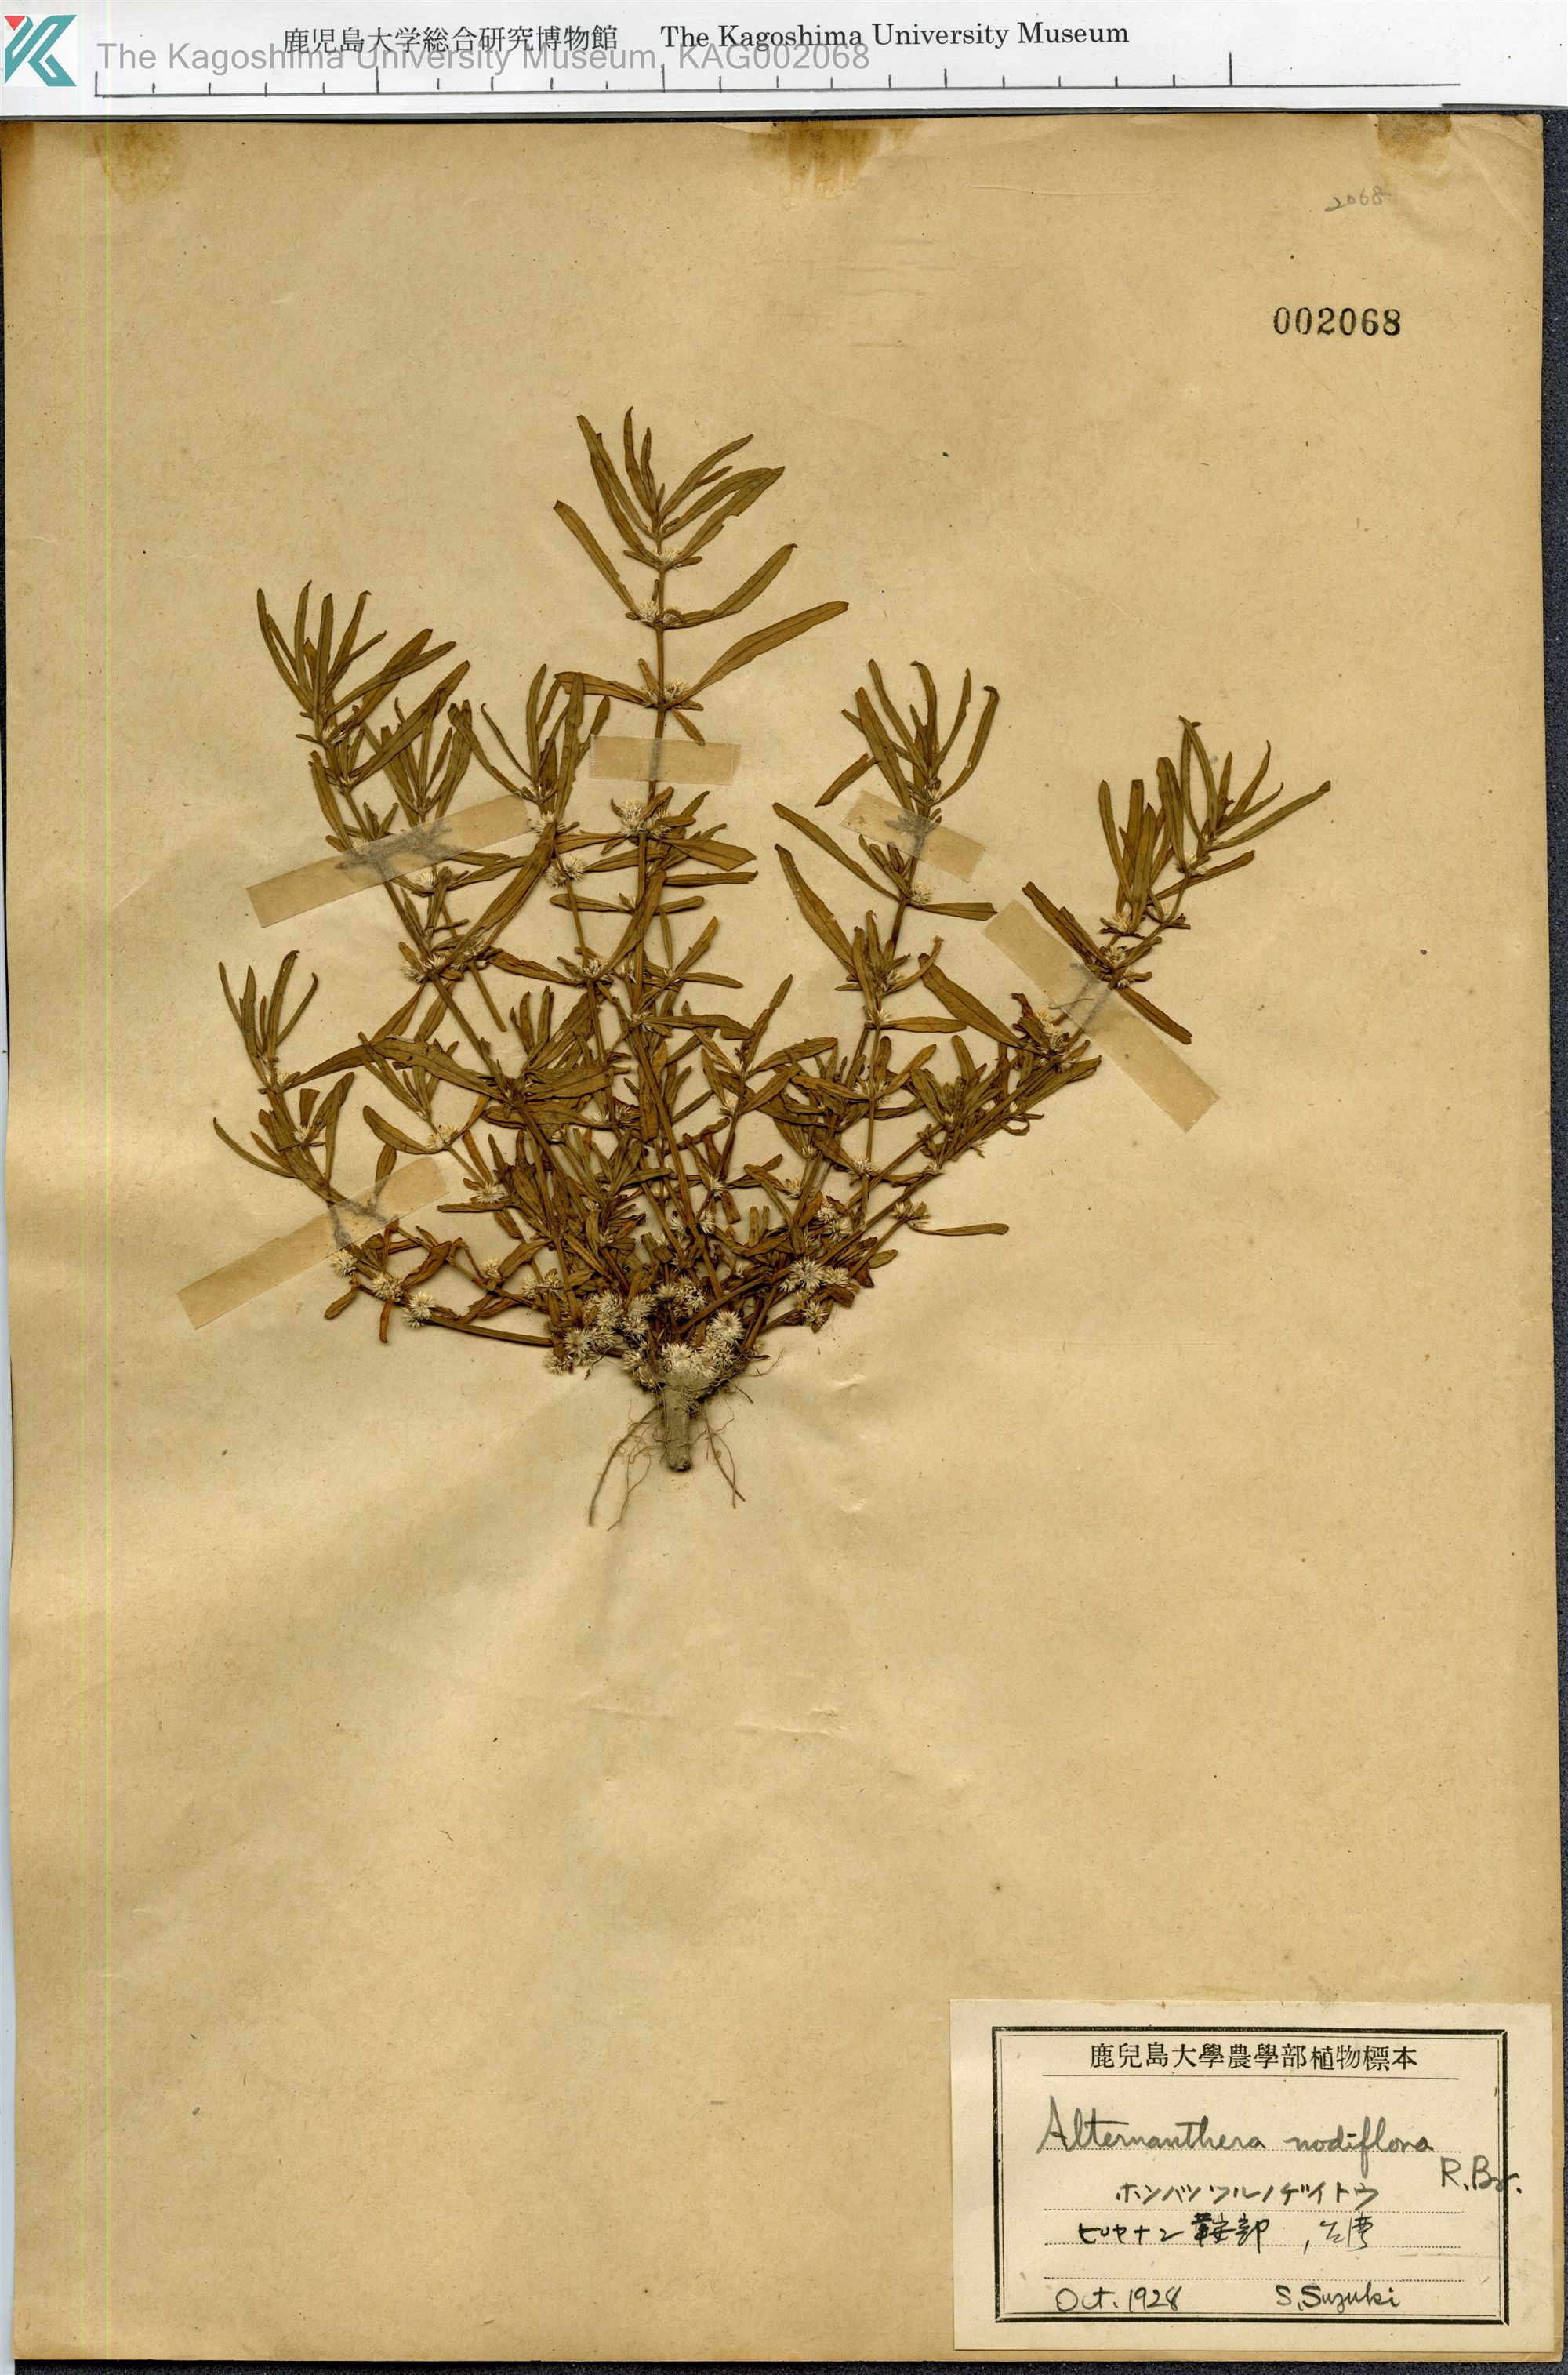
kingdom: Plantae
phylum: Tracheophyta
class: Magnoliopsida
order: Caryophyllales
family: Amaranthaceae
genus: Alternanthera
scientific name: Alternanthera denticulata
